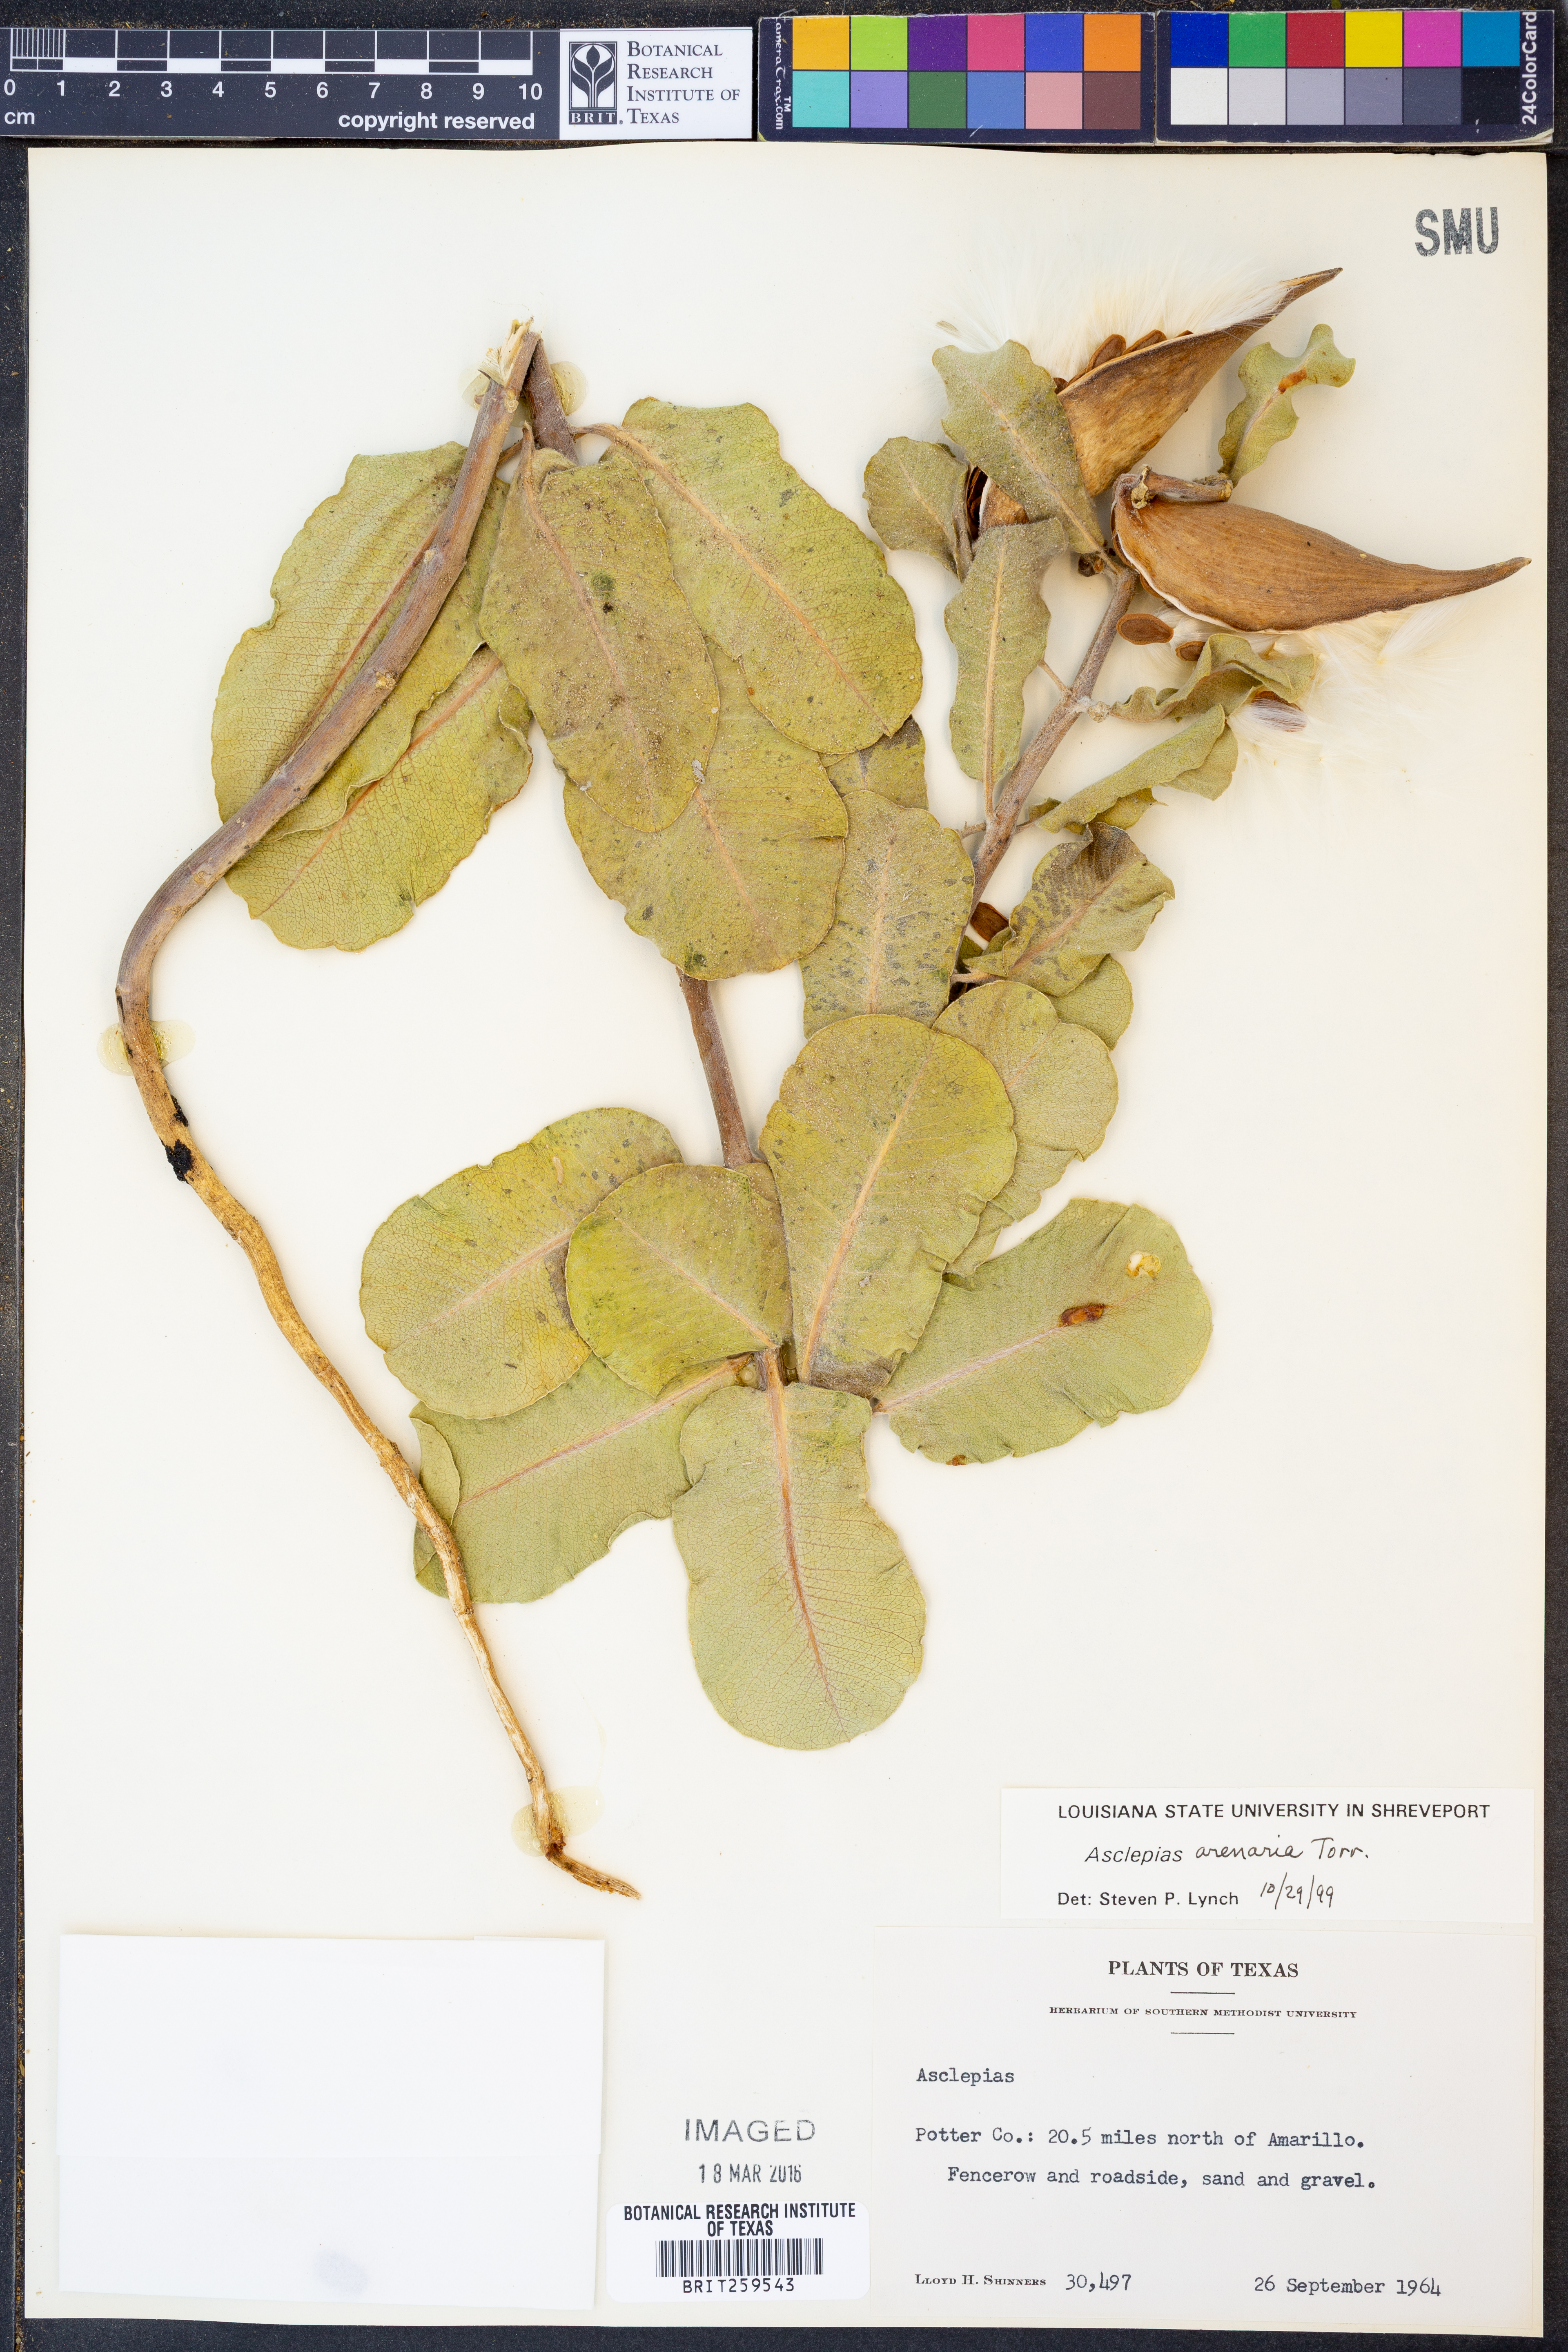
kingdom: Plantae
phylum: Tracheophyta
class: Magnoliopsida
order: Gentianales
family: Apocynaceae
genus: Asclepias
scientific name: Asclepias arenaria
